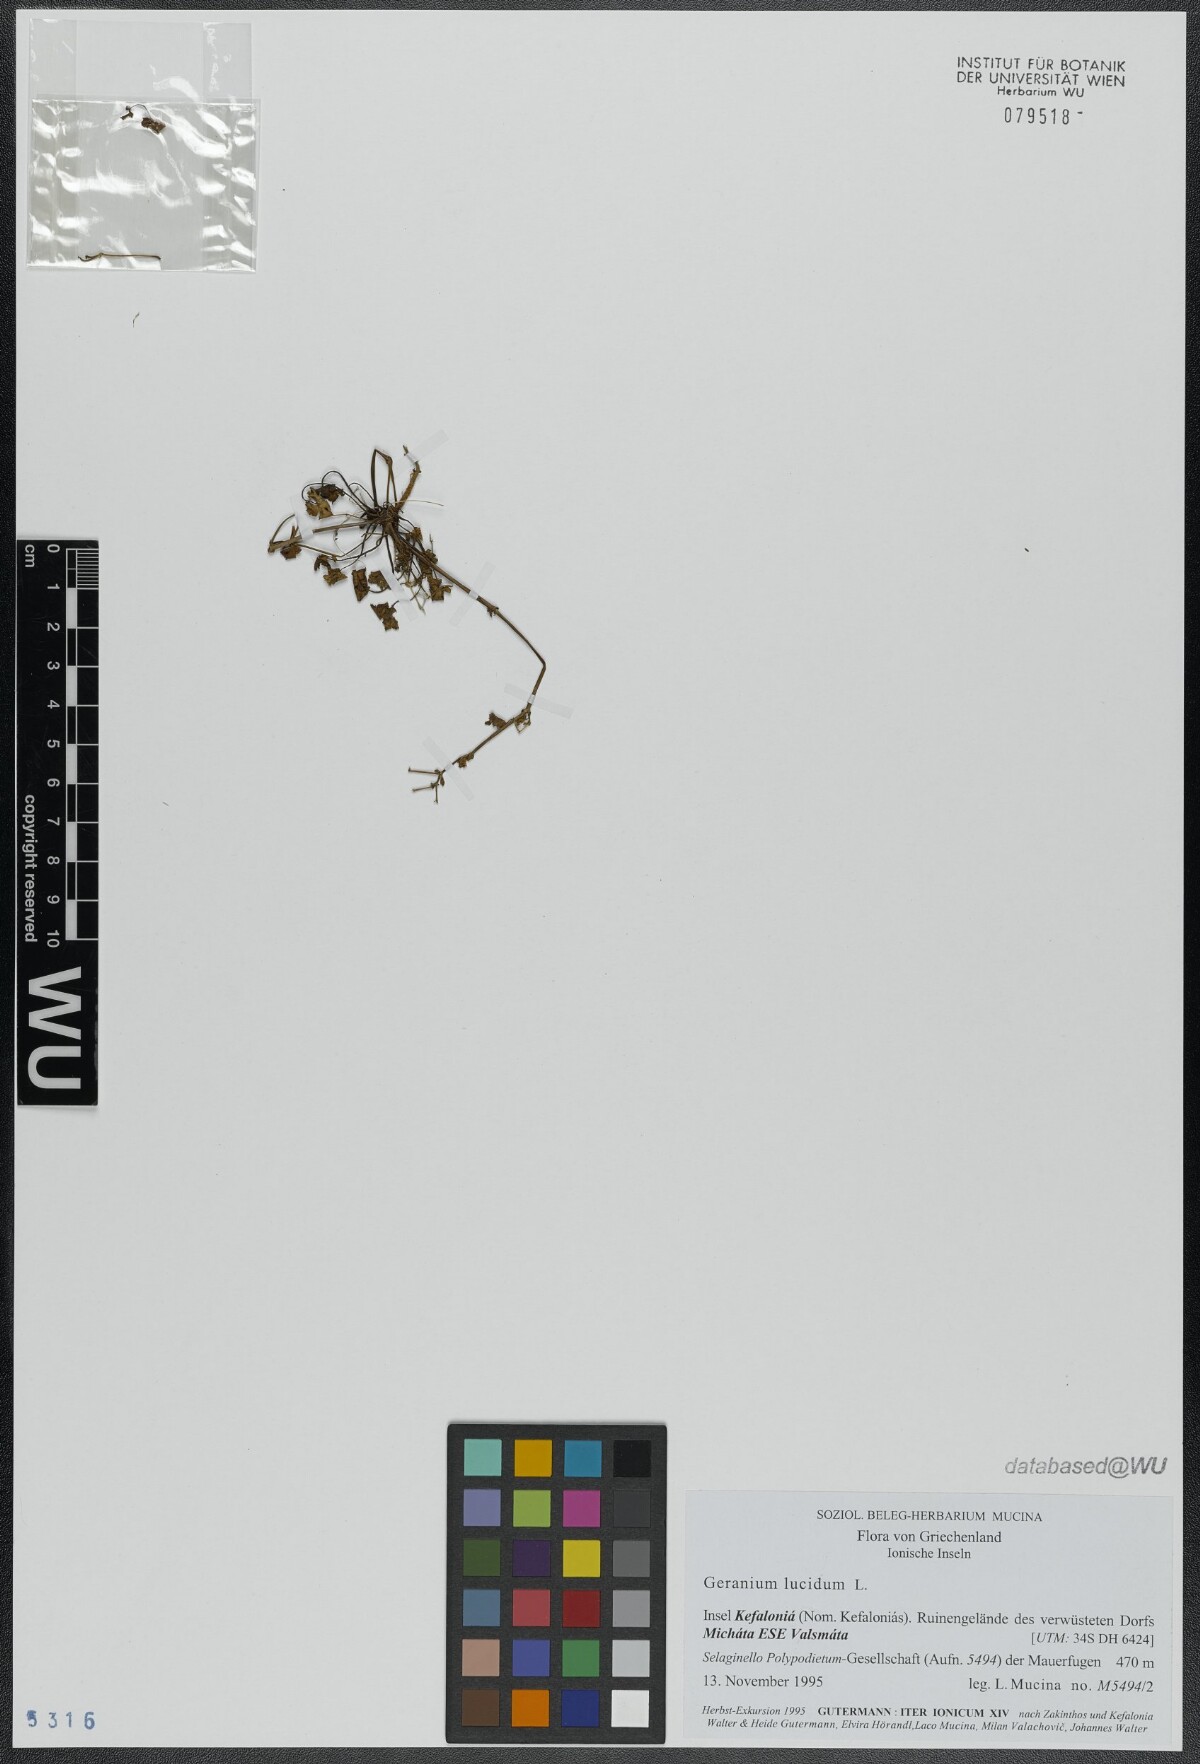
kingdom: Plantae
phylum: Tracheophyta
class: Magnoliopsida
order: Geraniales
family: Geraniaceae
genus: Geranium
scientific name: Geranium lucidum
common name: Shining crane's-bill
